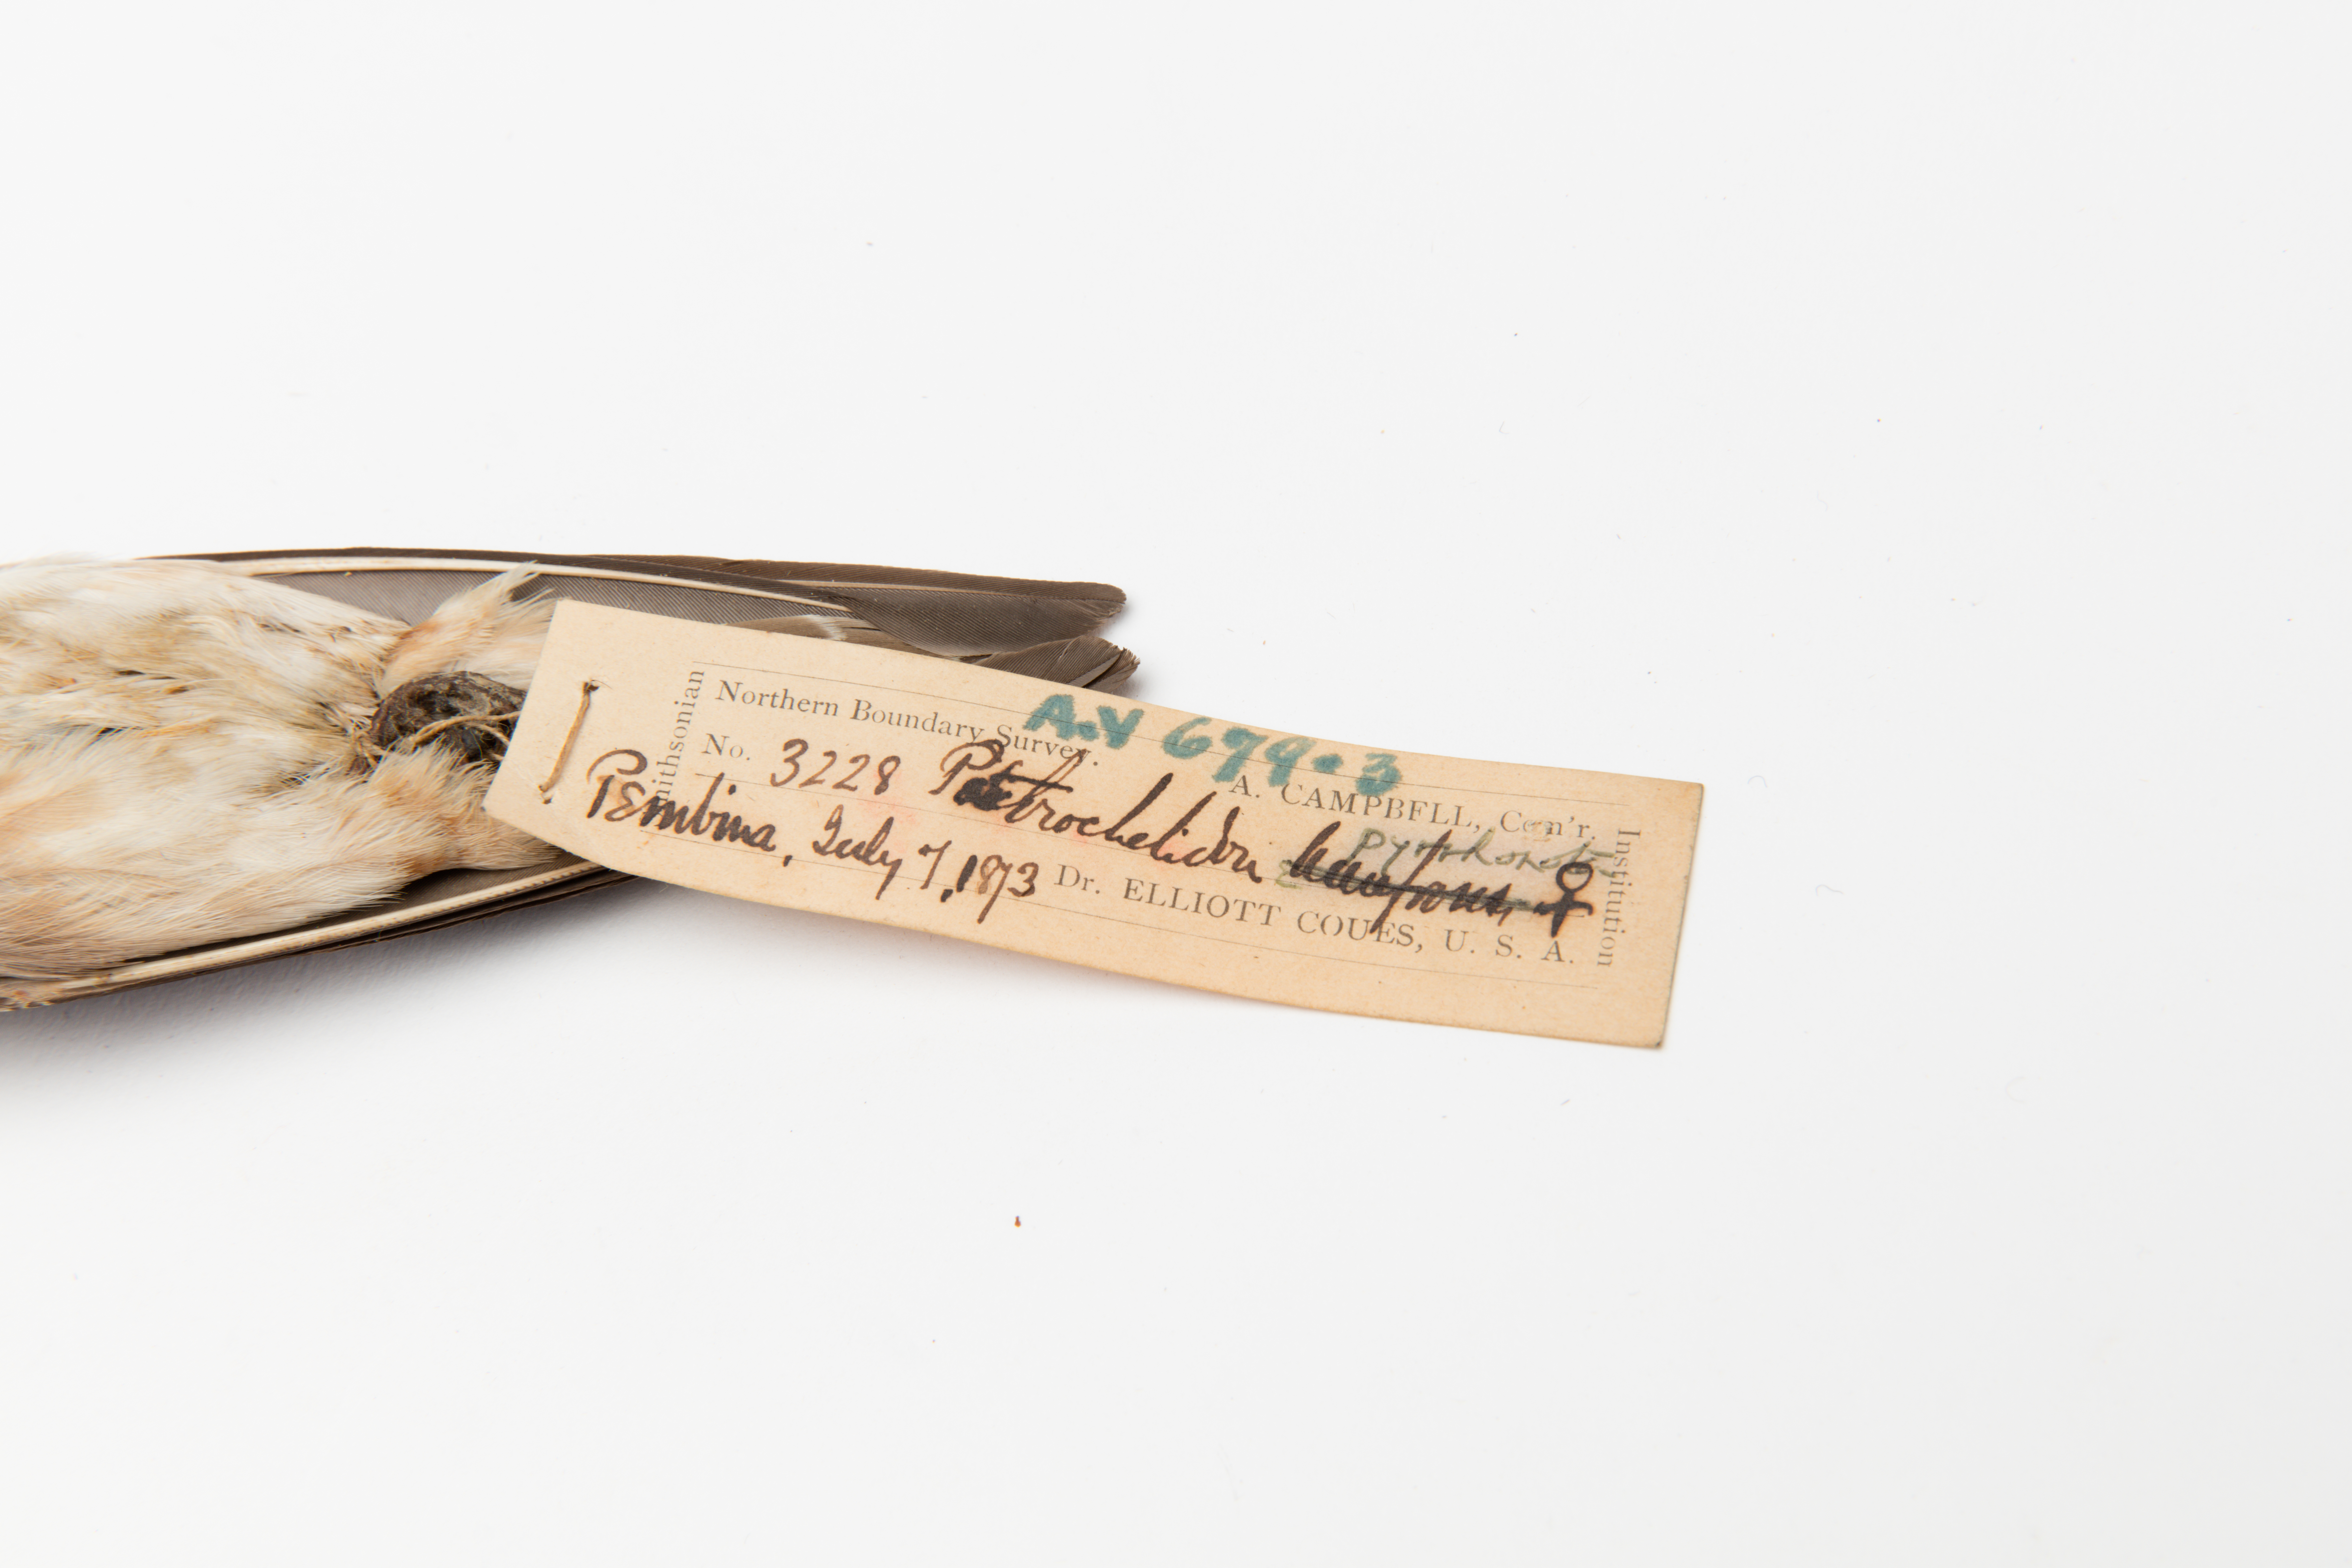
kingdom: Animalia
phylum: Chordata
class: Aves
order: Passeriformes
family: Hirundinidae
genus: Petrochelidon
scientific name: Petrochelidon pyrrhonota
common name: American cliff swallow
